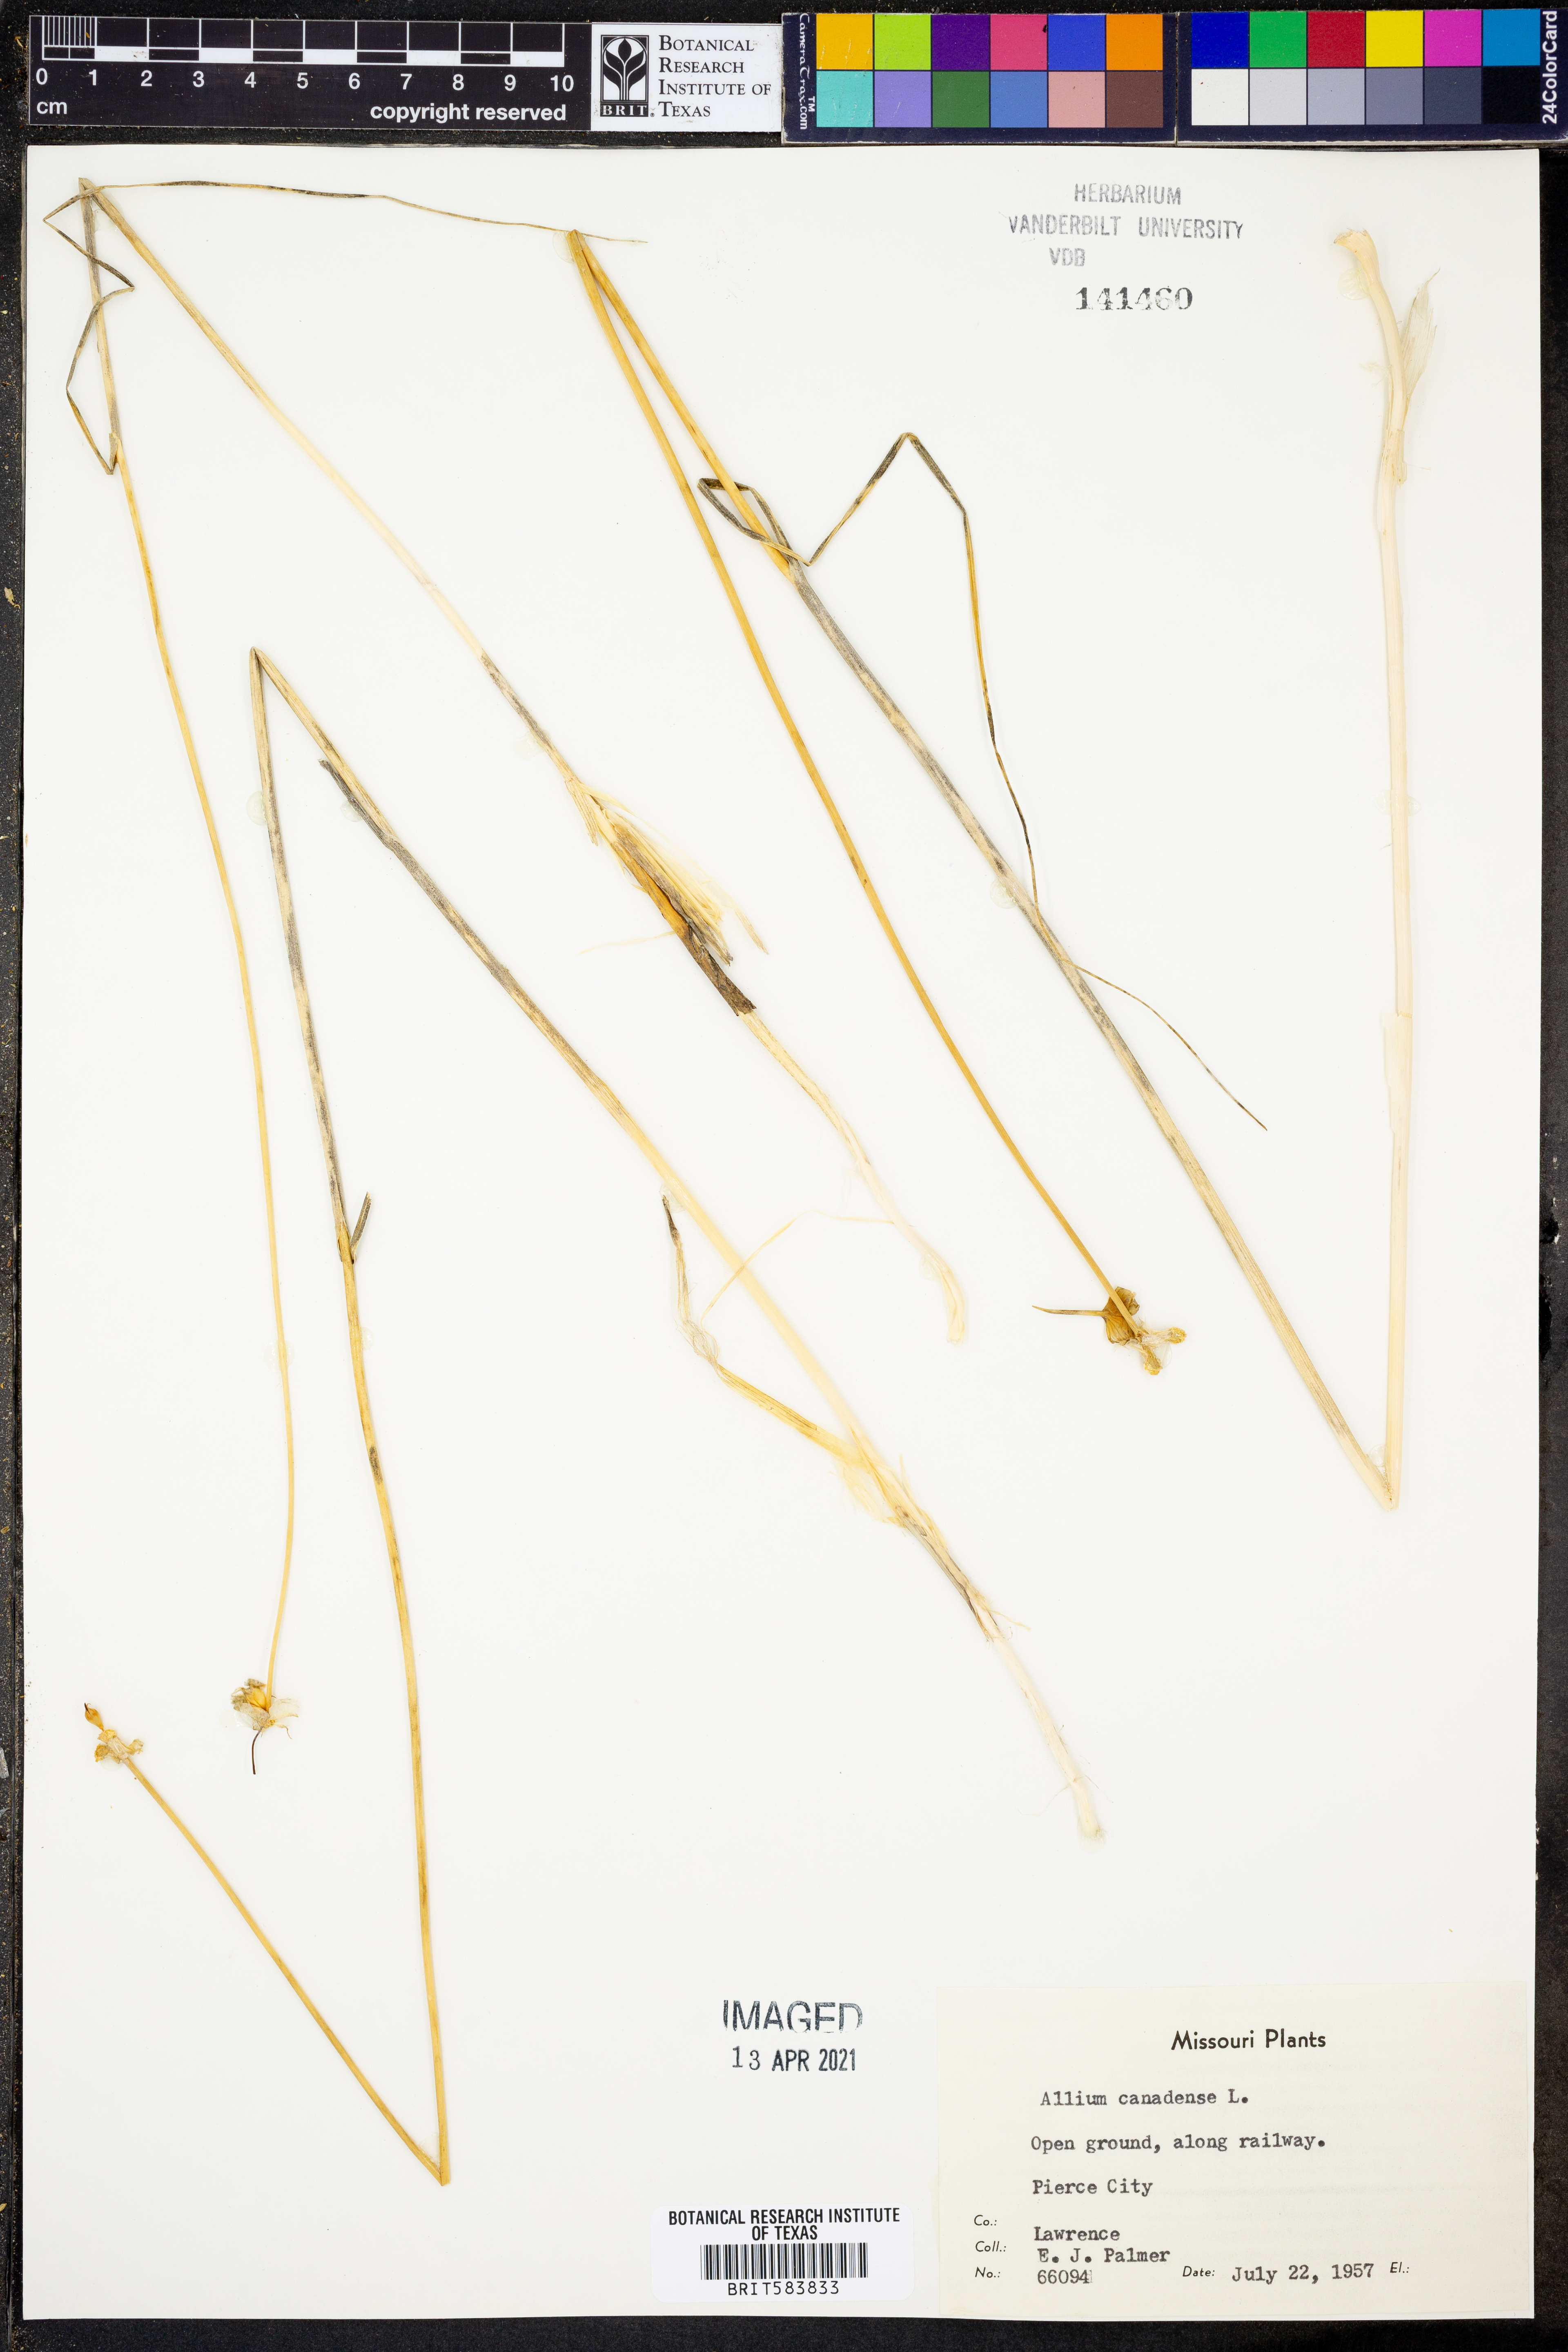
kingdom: Plantae
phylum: Tracheophyta
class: Liliopsida
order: Asparagales
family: Amaryllidaceae
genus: Allium
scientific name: Allium canadense
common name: Meadow garlic
